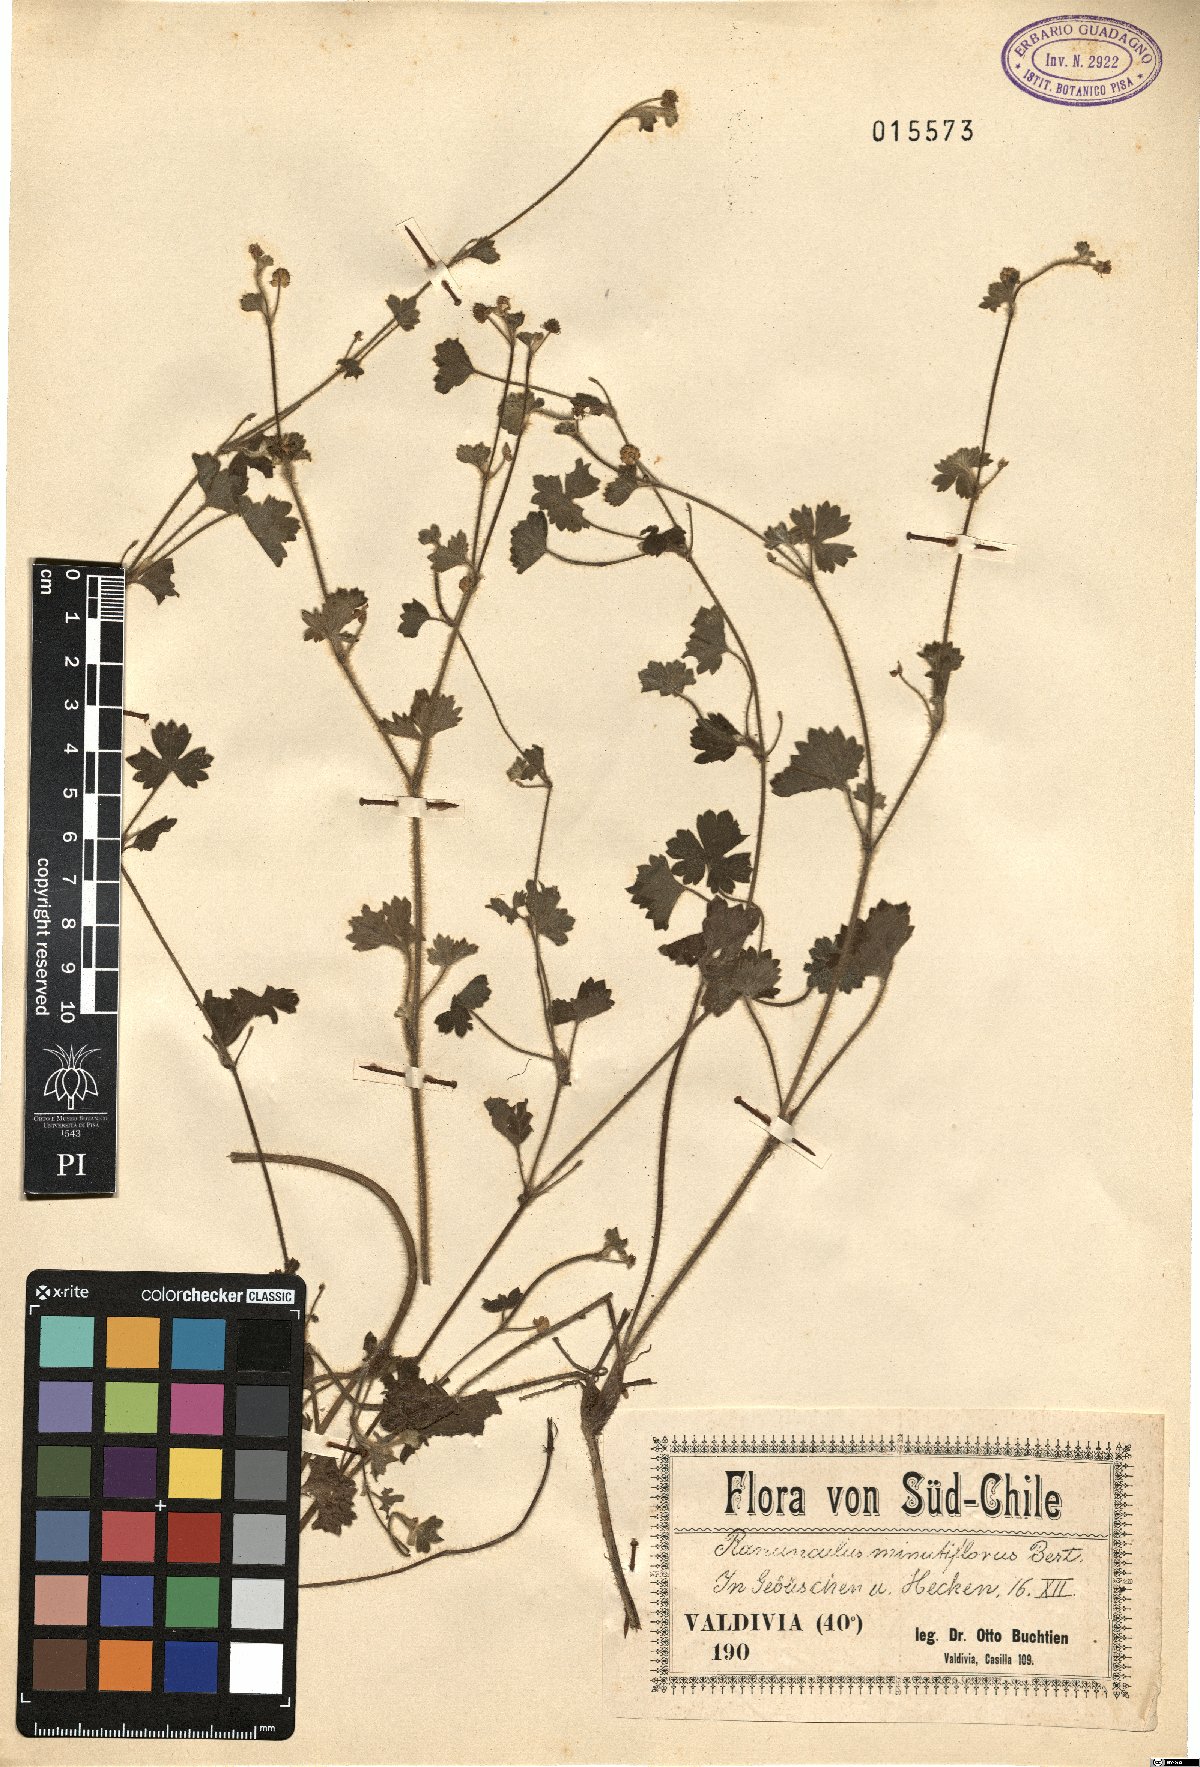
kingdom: Plantae
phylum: Tracheophyta
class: Magnoliopsida
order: Ranunculales
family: Ranunculaceae
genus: Ranunculus
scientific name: Ranunculus minutiflorus
